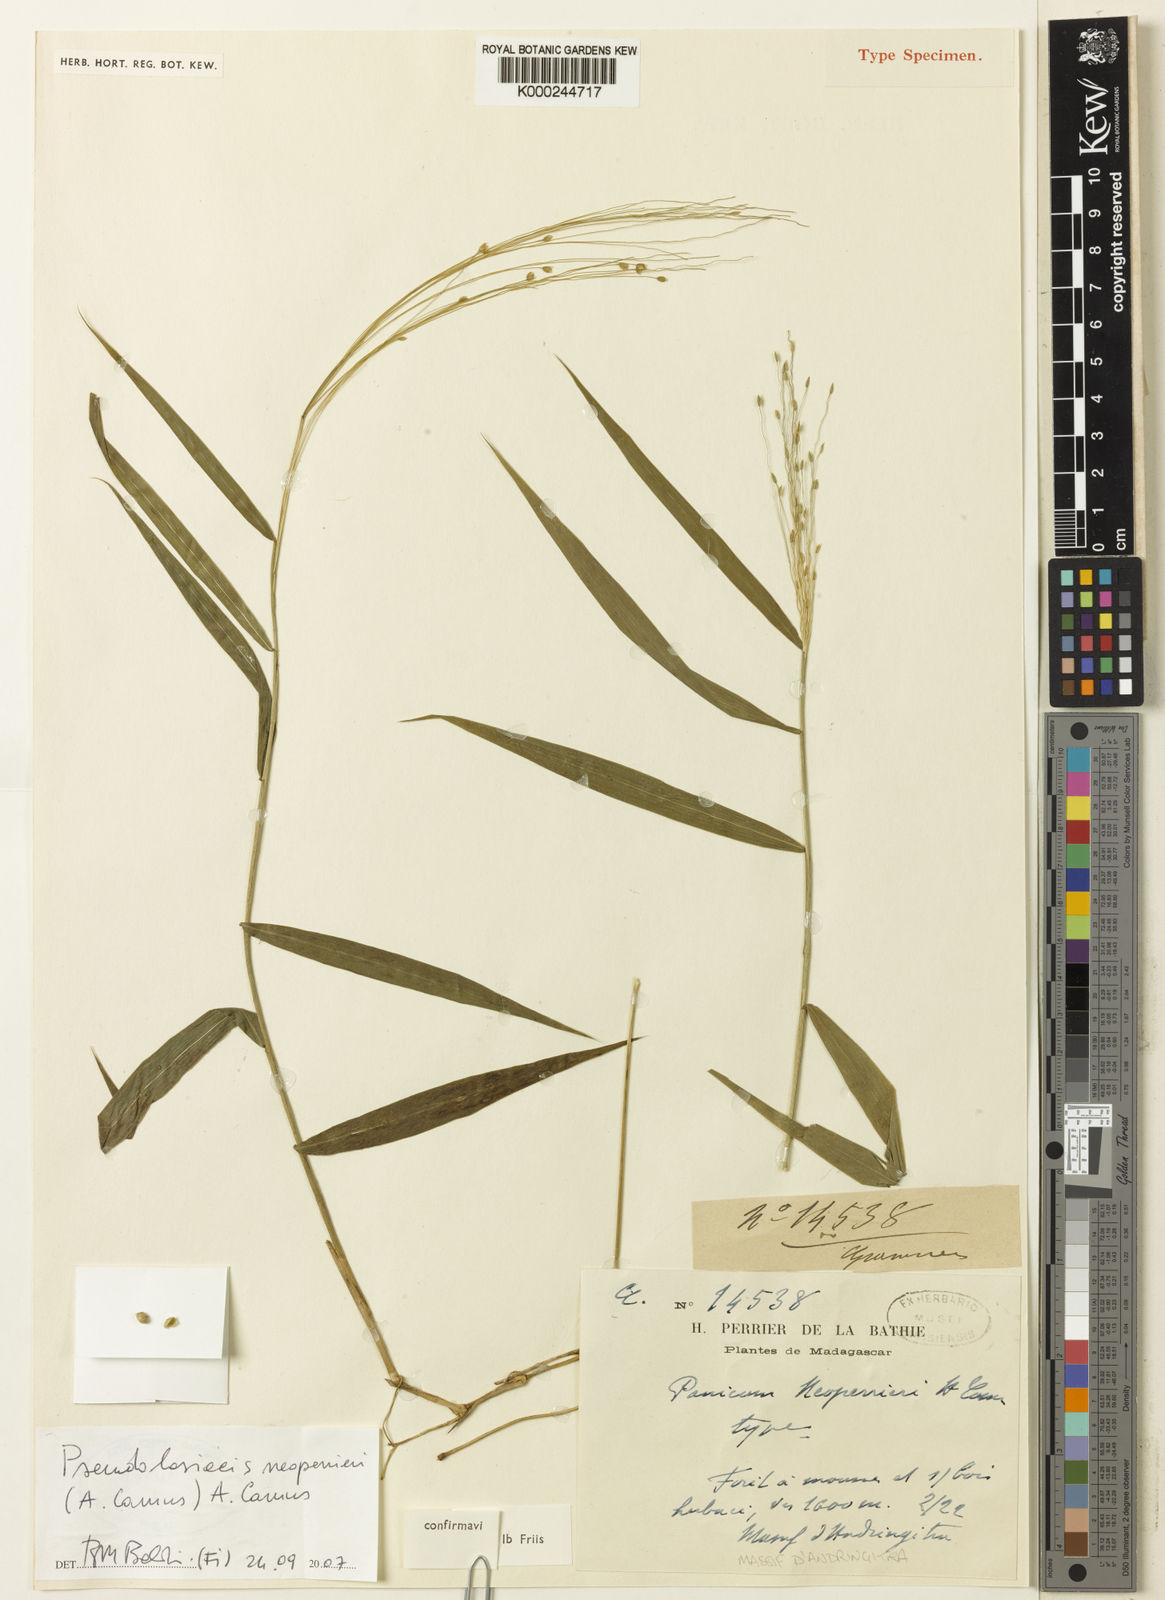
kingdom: Plantae
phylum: Tracheophyta
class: Liliopsida
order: Poales
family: Poaceae
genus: Pseudolasiacis
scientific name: Pseudolasiacis neoperrieri
